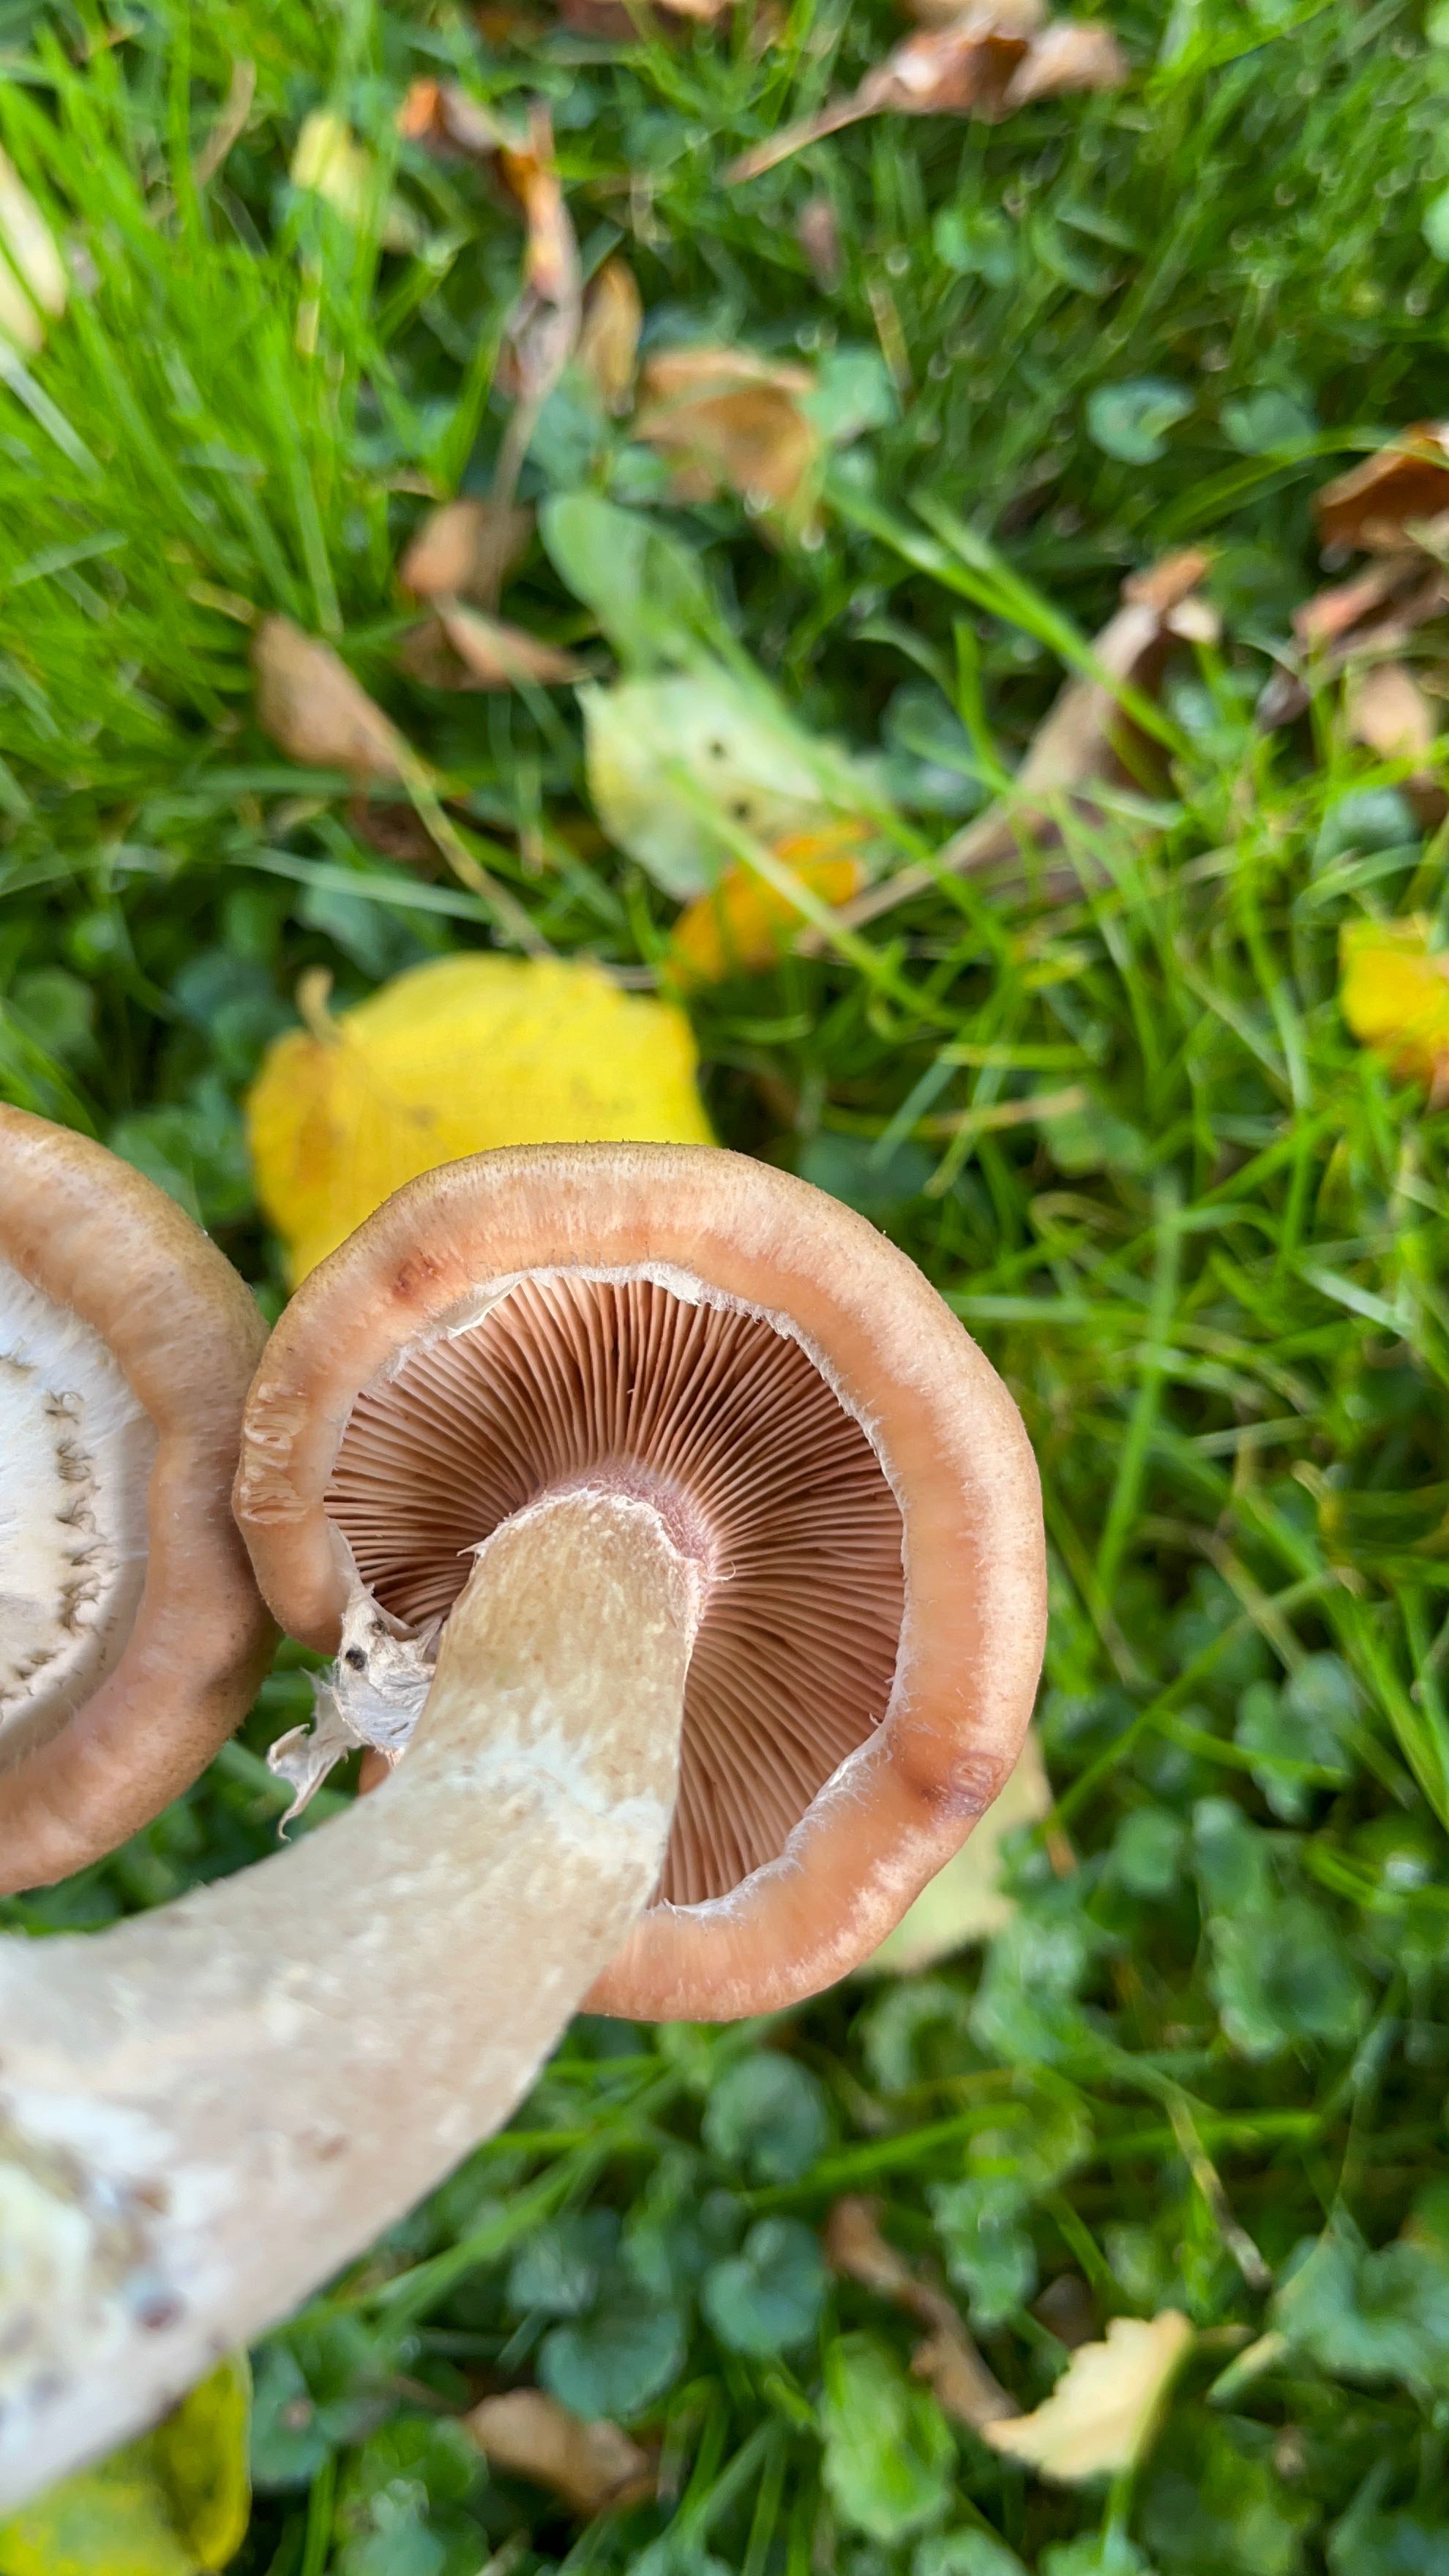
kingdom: Fungi
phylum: Basidiomycota
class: Agaricomycetes
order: Agaricales
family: Physalacriaceae
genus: Armillaria
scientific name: Armillaria
